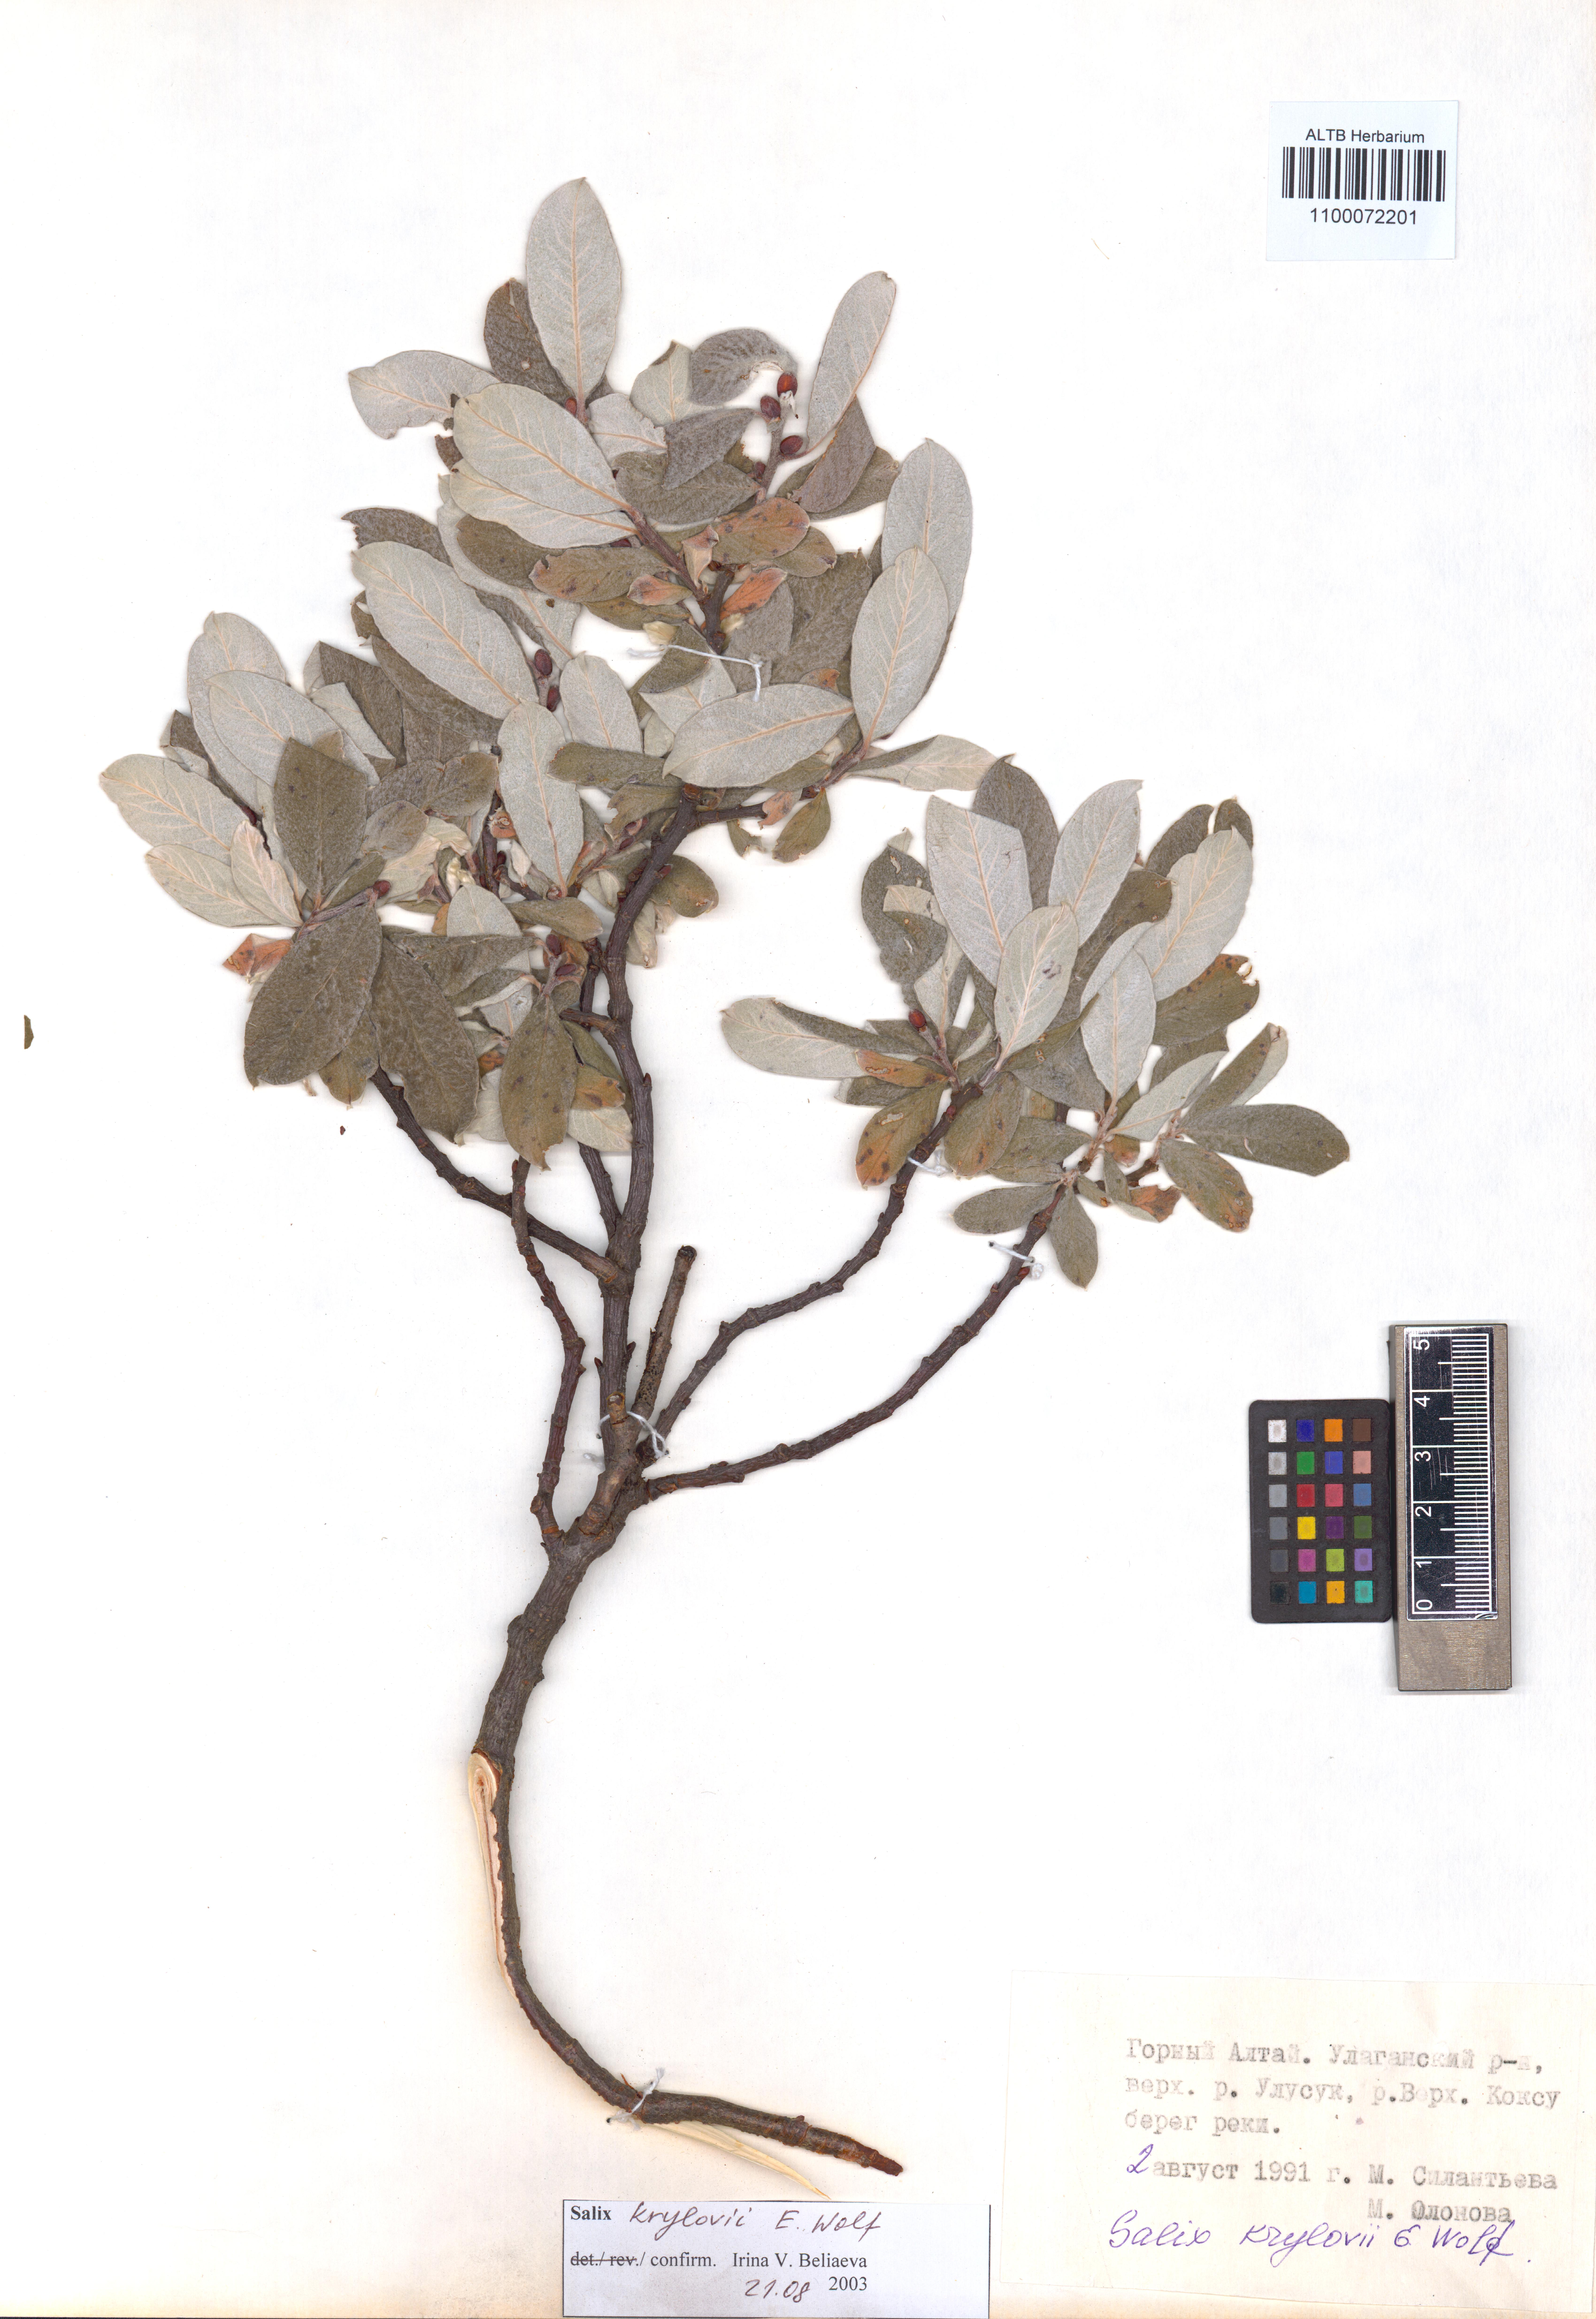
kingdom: Plantae
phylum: Tracheophyta
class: Magnoliopsida
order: Malpighiales
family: Salicaceae
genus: Salix
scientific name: Salix krylovii
